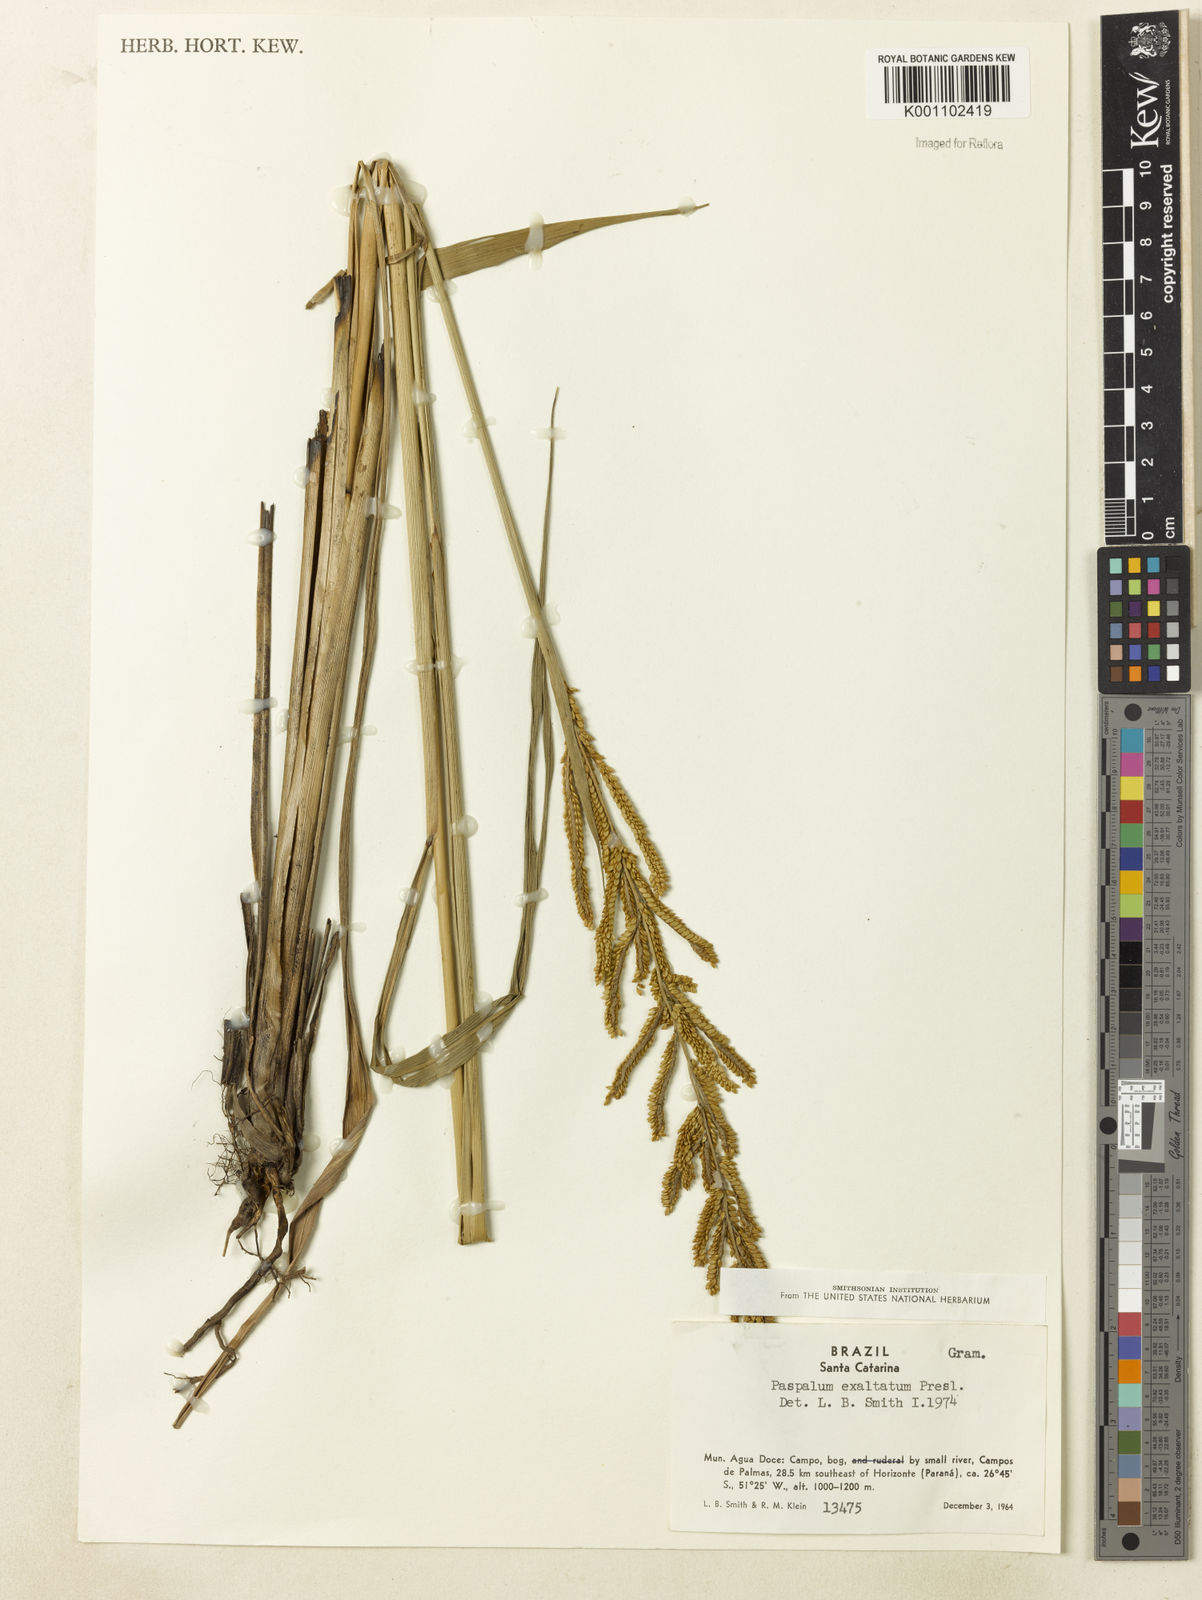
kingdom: Plantae
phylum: Tracheophyta
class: Liliopsida
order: Poales
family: Poaceae
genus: Paspalum
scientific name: Paspalum exaltatum
